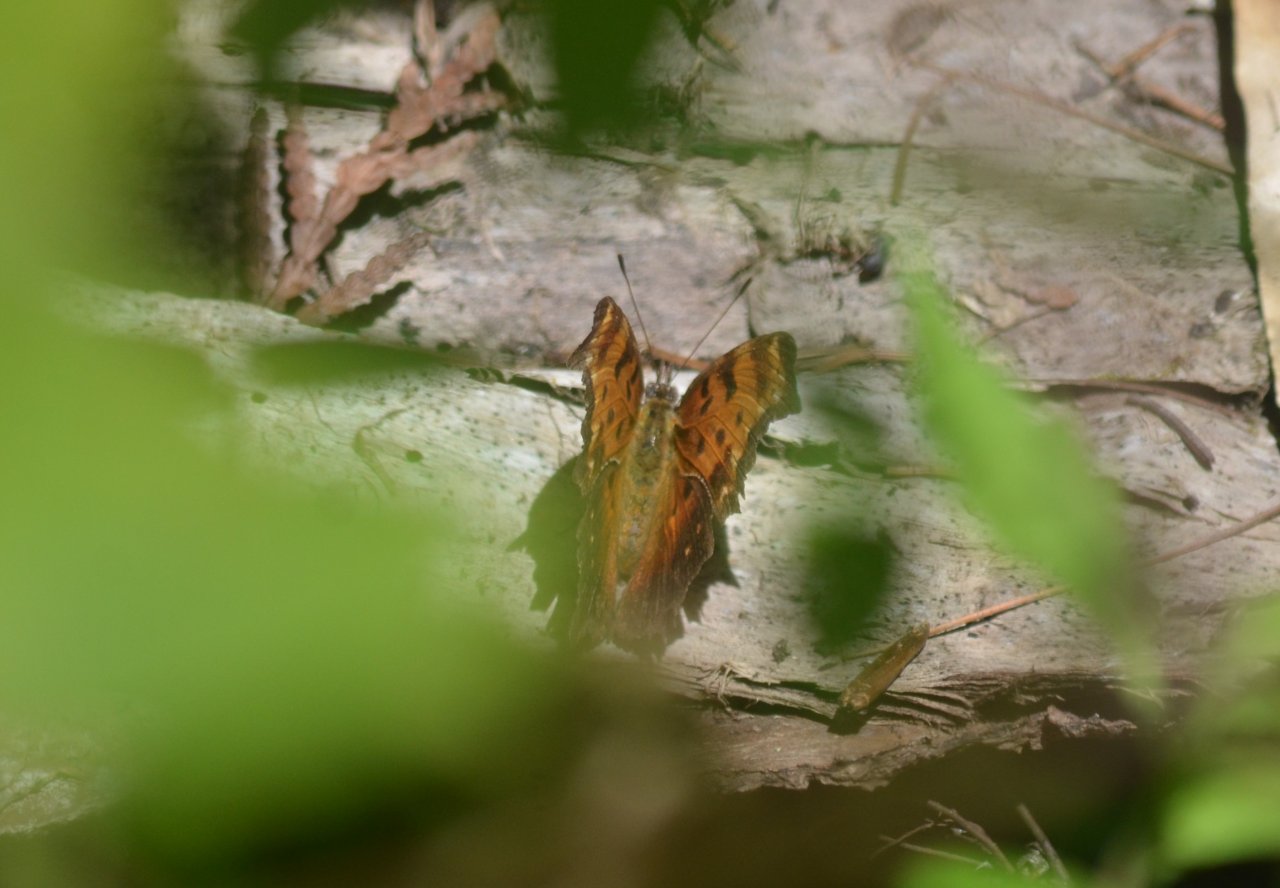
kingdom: Animalia
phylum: Arthropoda
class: Insecta
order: Lepidoptera
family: Nymphalidae
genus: Polygonia
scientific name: Polygonia progne
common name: Gray Comma
